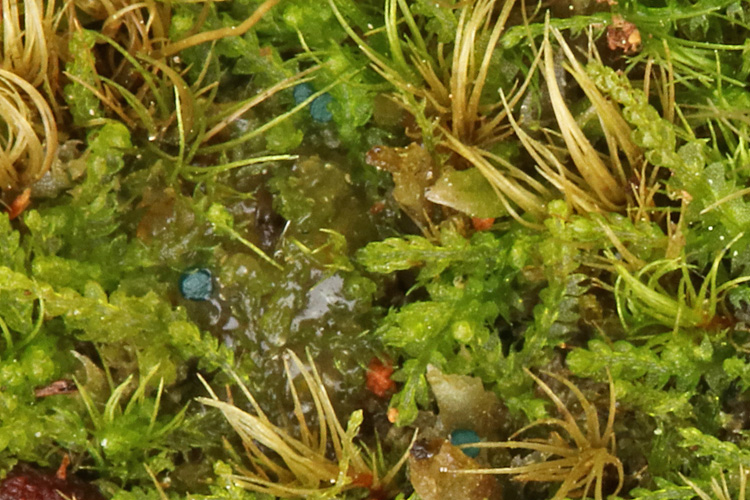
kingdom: Fungi
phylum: Ascomycota
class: Leotiomycetes
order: Leotiales
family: Mniaeciaceae
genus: Mniaecia
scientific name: Mniaecia jungermanniae
